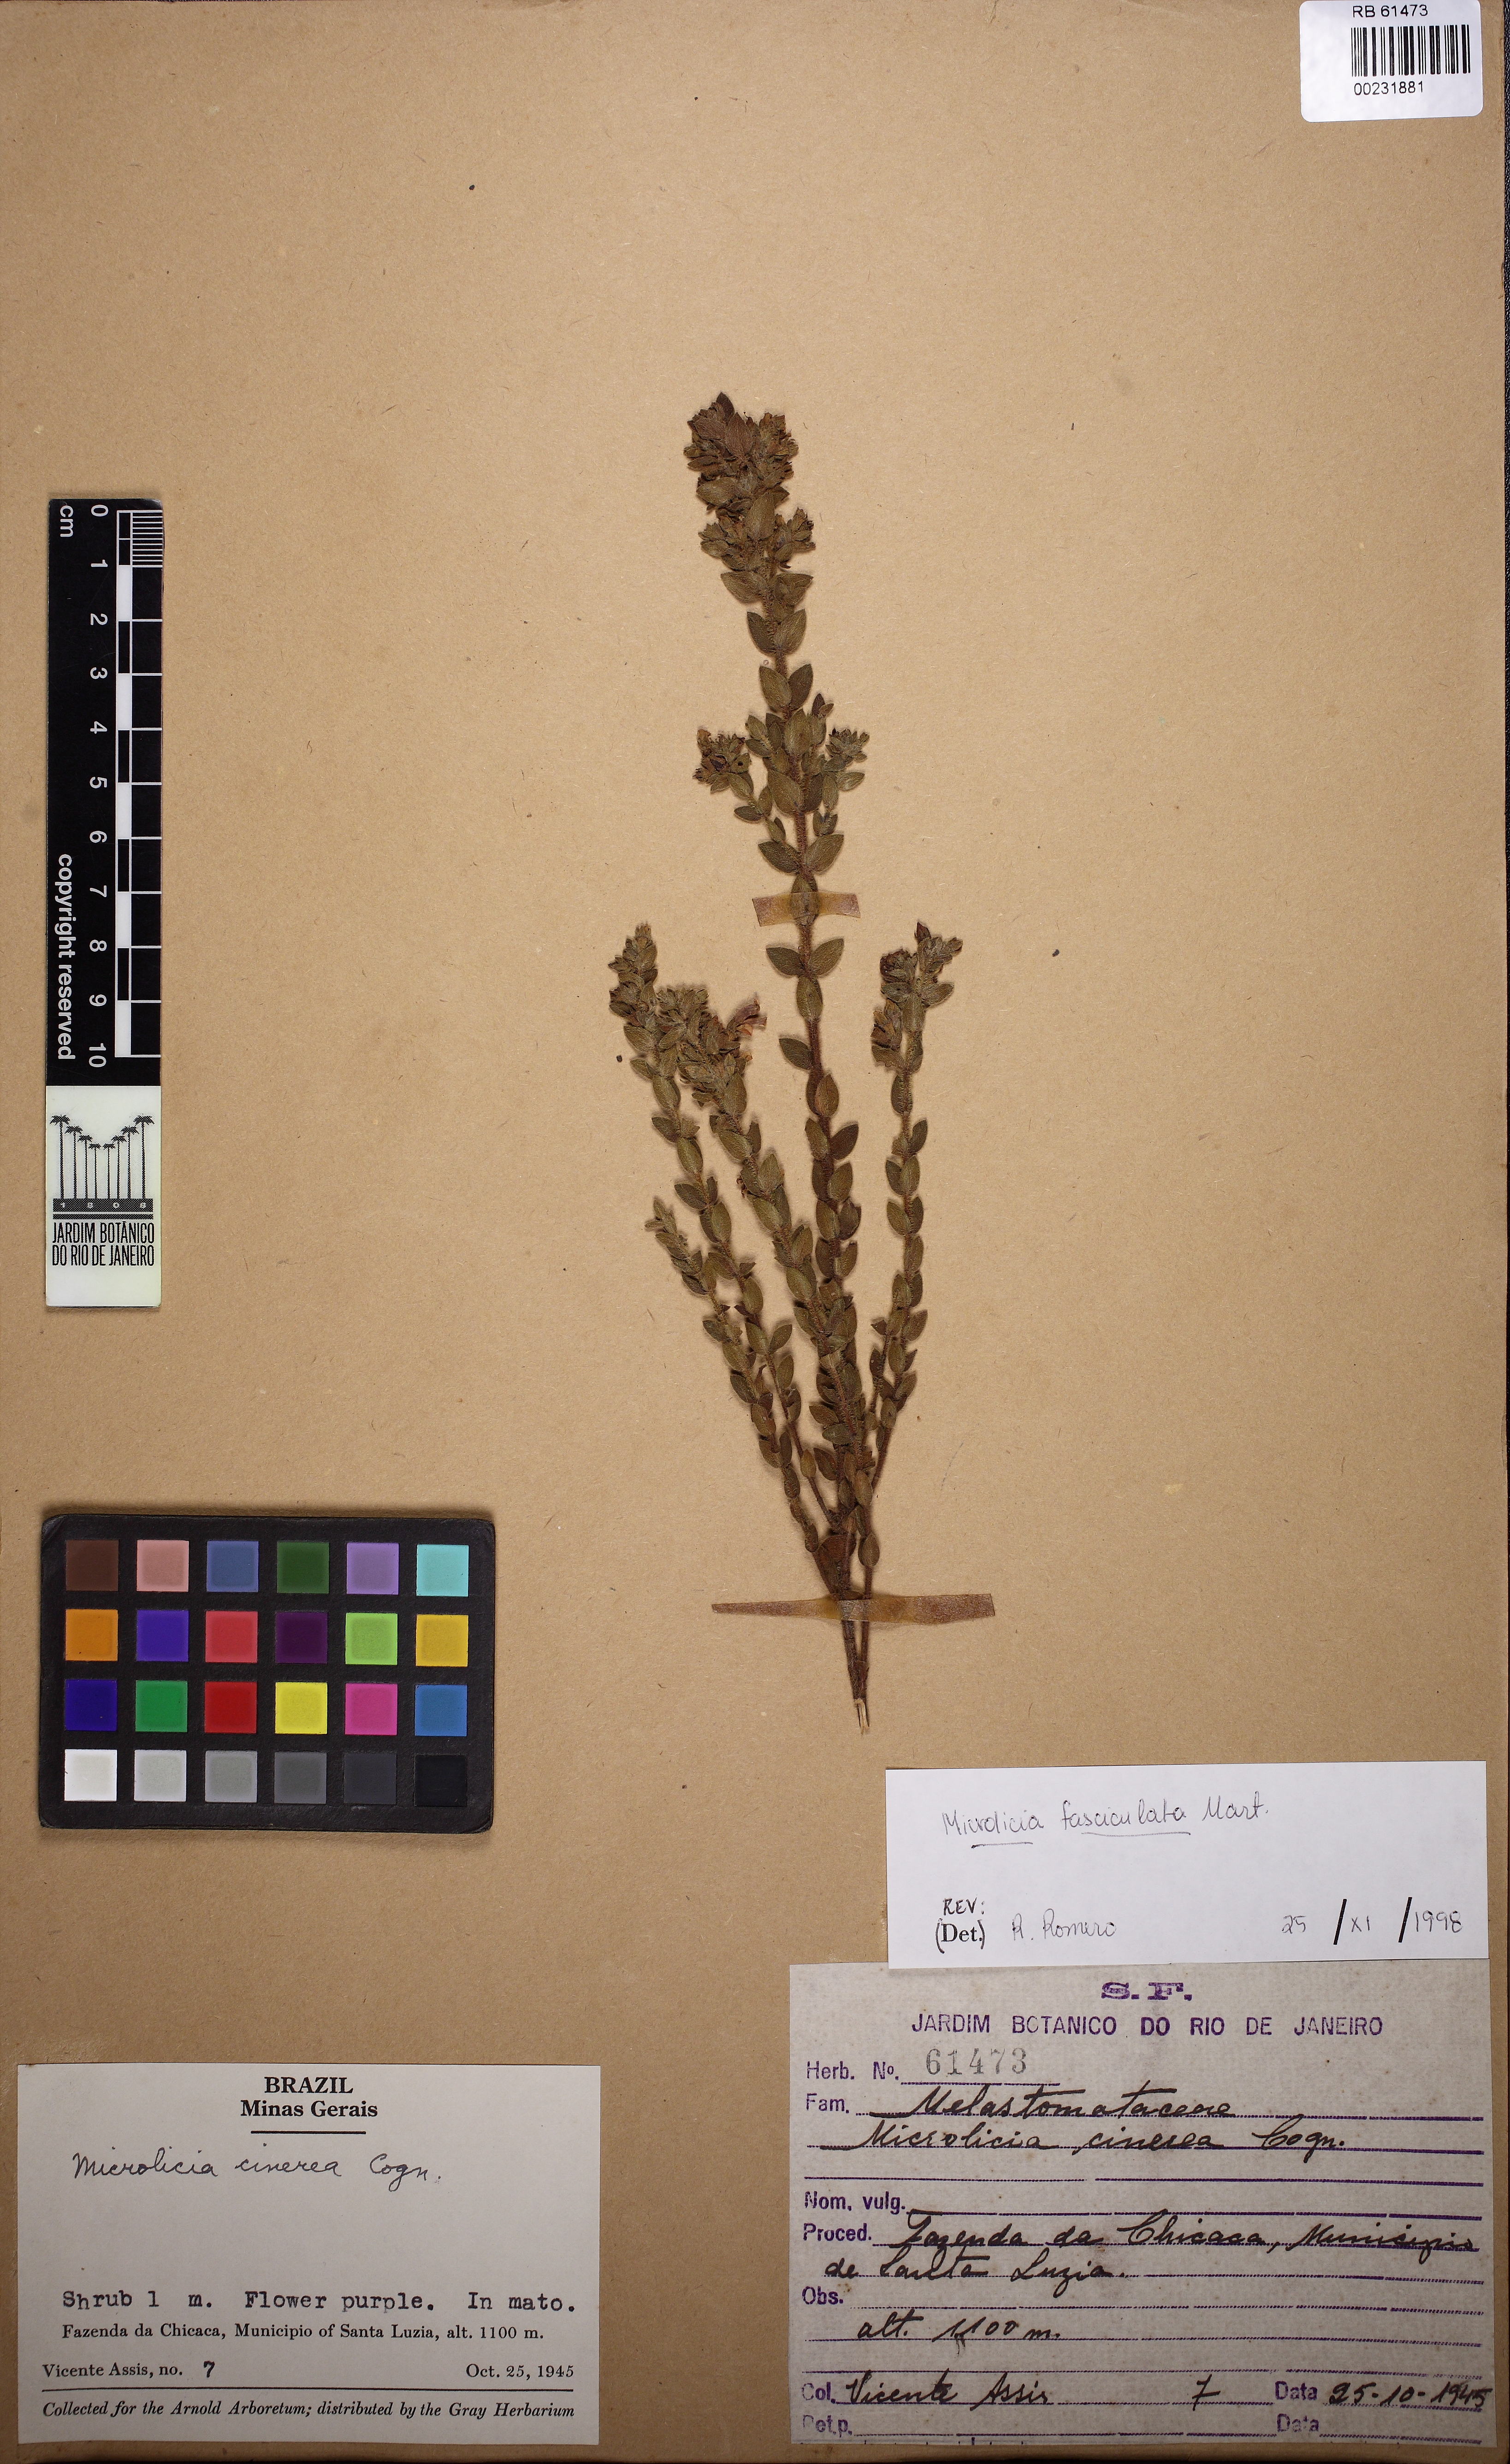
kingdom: Plantae
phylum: Tracheophyta
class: Magnoliopsida
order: Myrtales
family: Melastomataceae
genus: Microlicia
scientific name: Microlicia hirsuta
